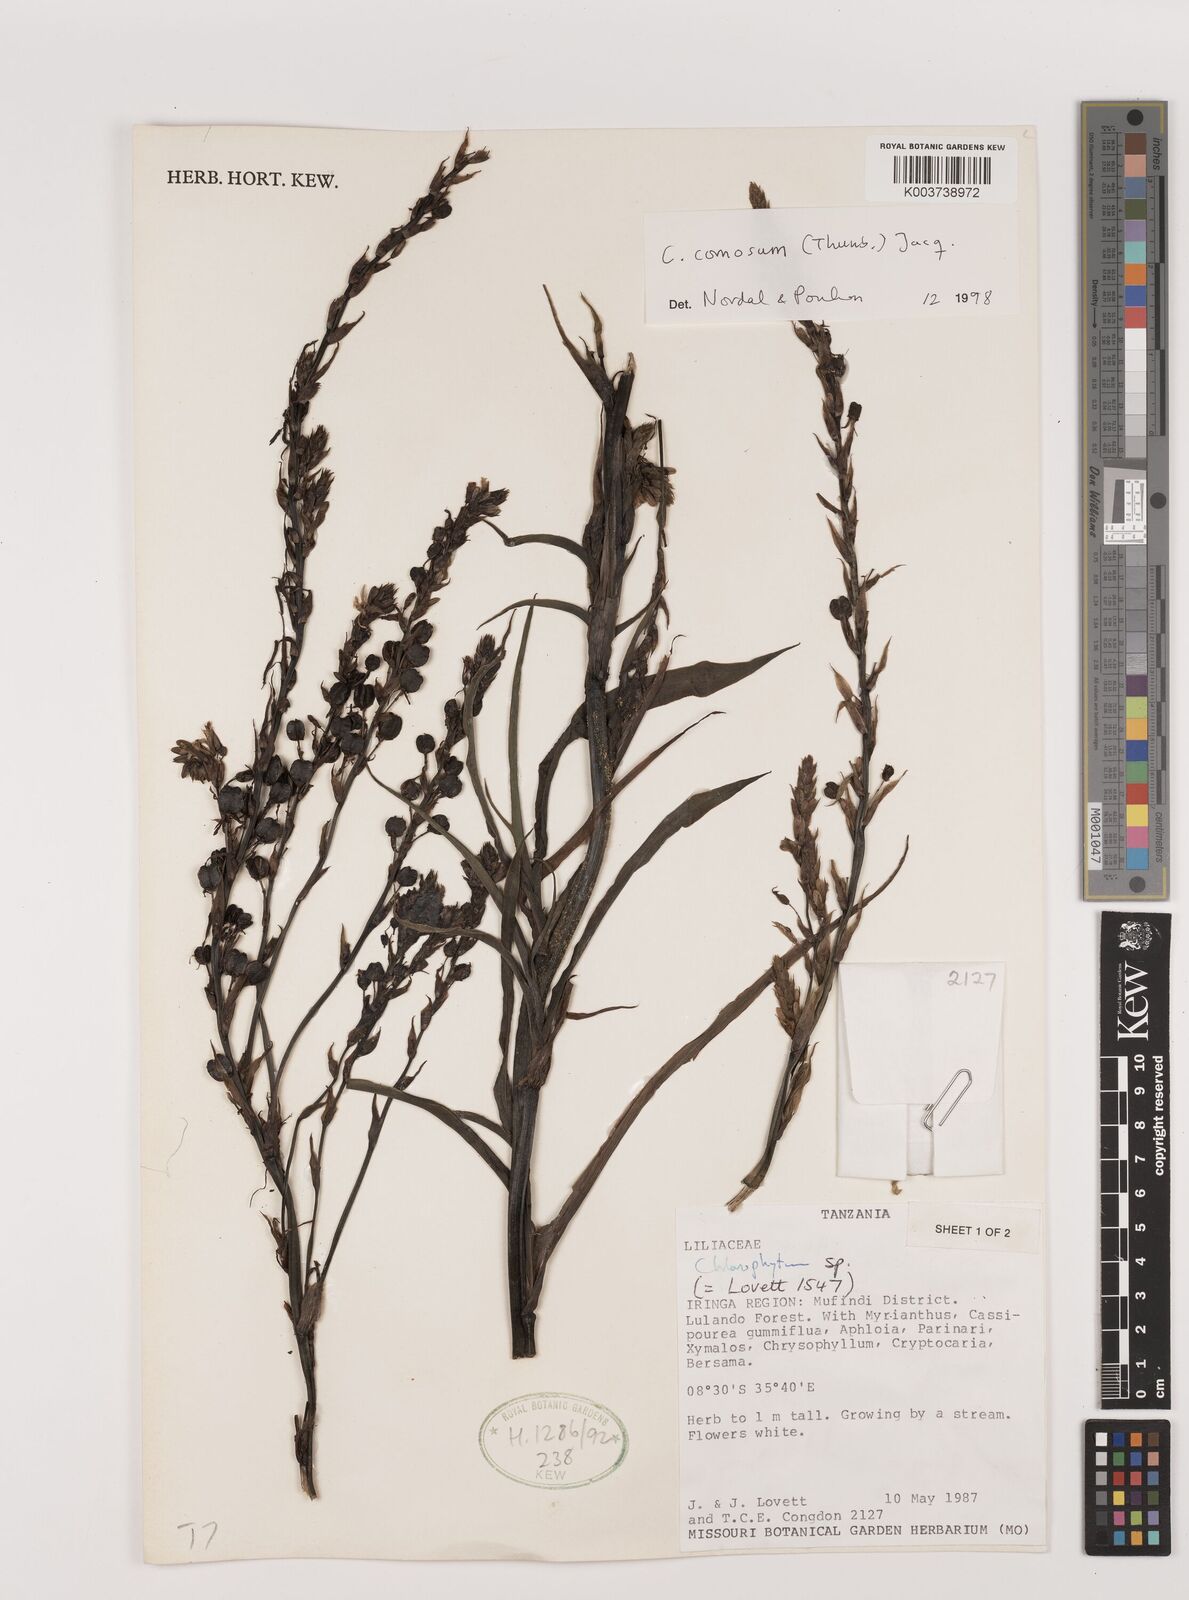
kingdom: Plantae
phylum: Tracheophyta
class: Liliopsida
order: Asparagales
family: Asparagaceae
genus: Chlorophytum
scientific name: Chlorophytum comosum
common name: Spider plant
